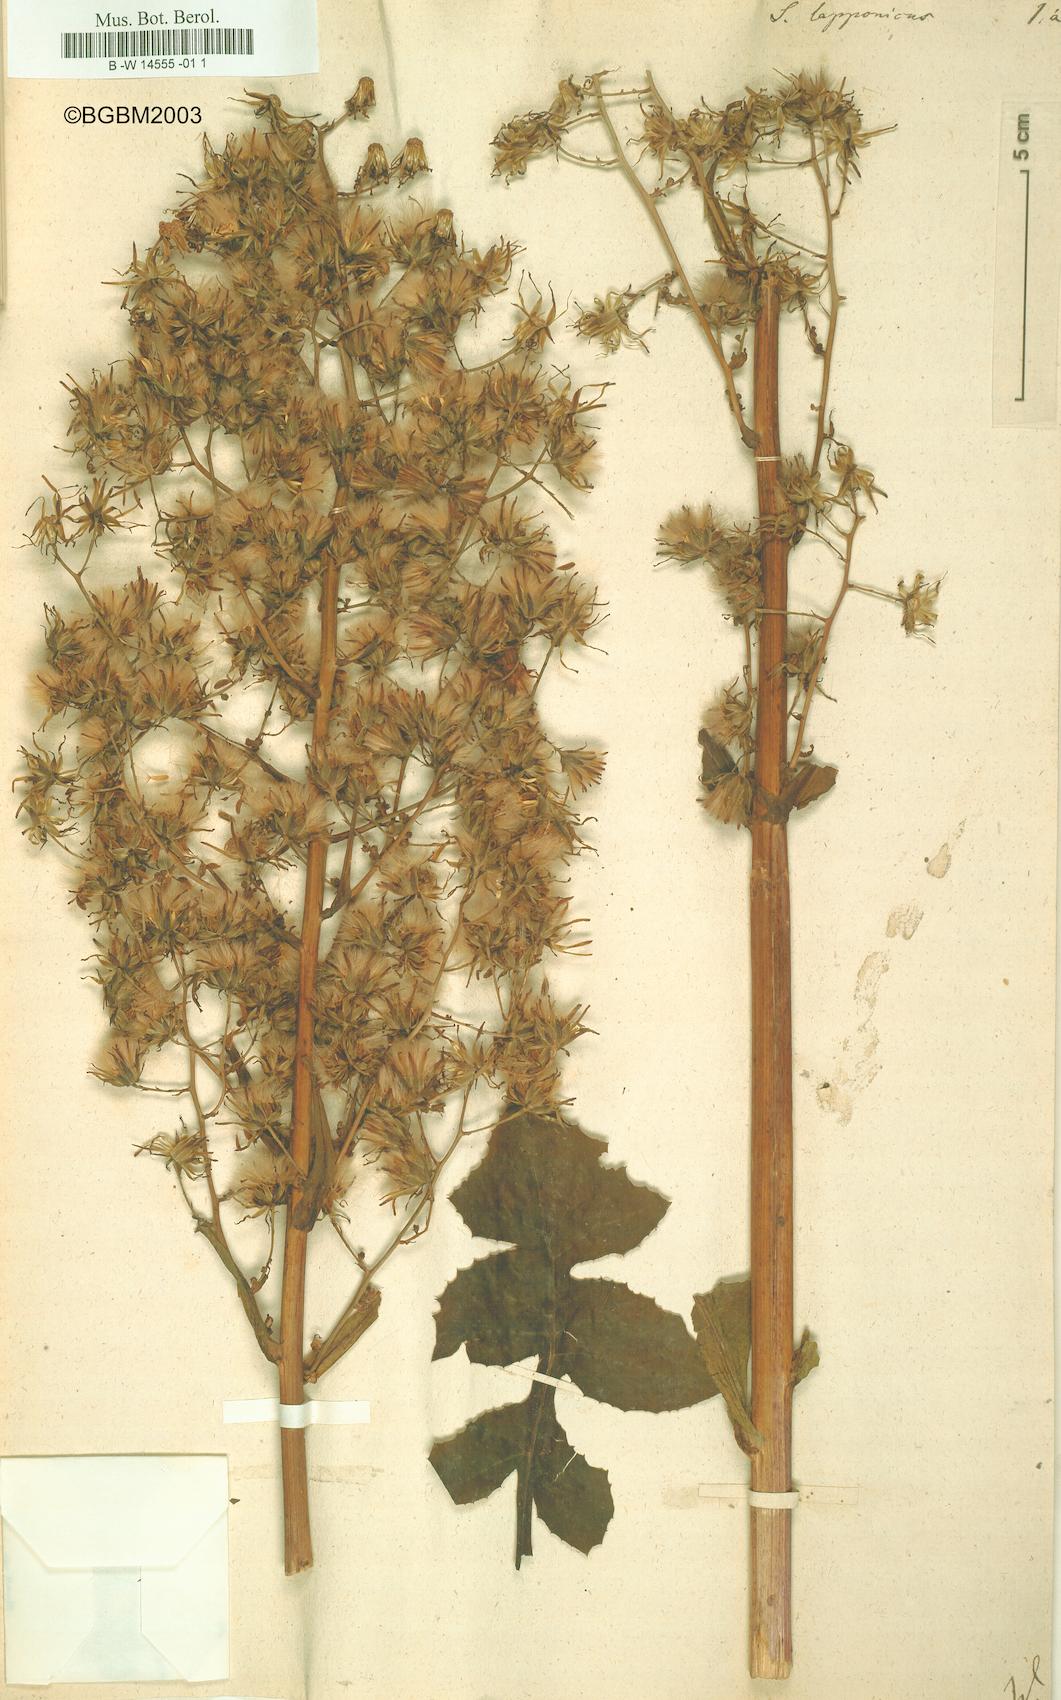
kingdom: Plantae
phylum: Tracheophyta
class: Magnoliopsida
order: Asterales
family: Asteraceae
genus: Cicerbita
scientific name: Cicerbita alpina
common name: Alpine blue-sow-thistle
